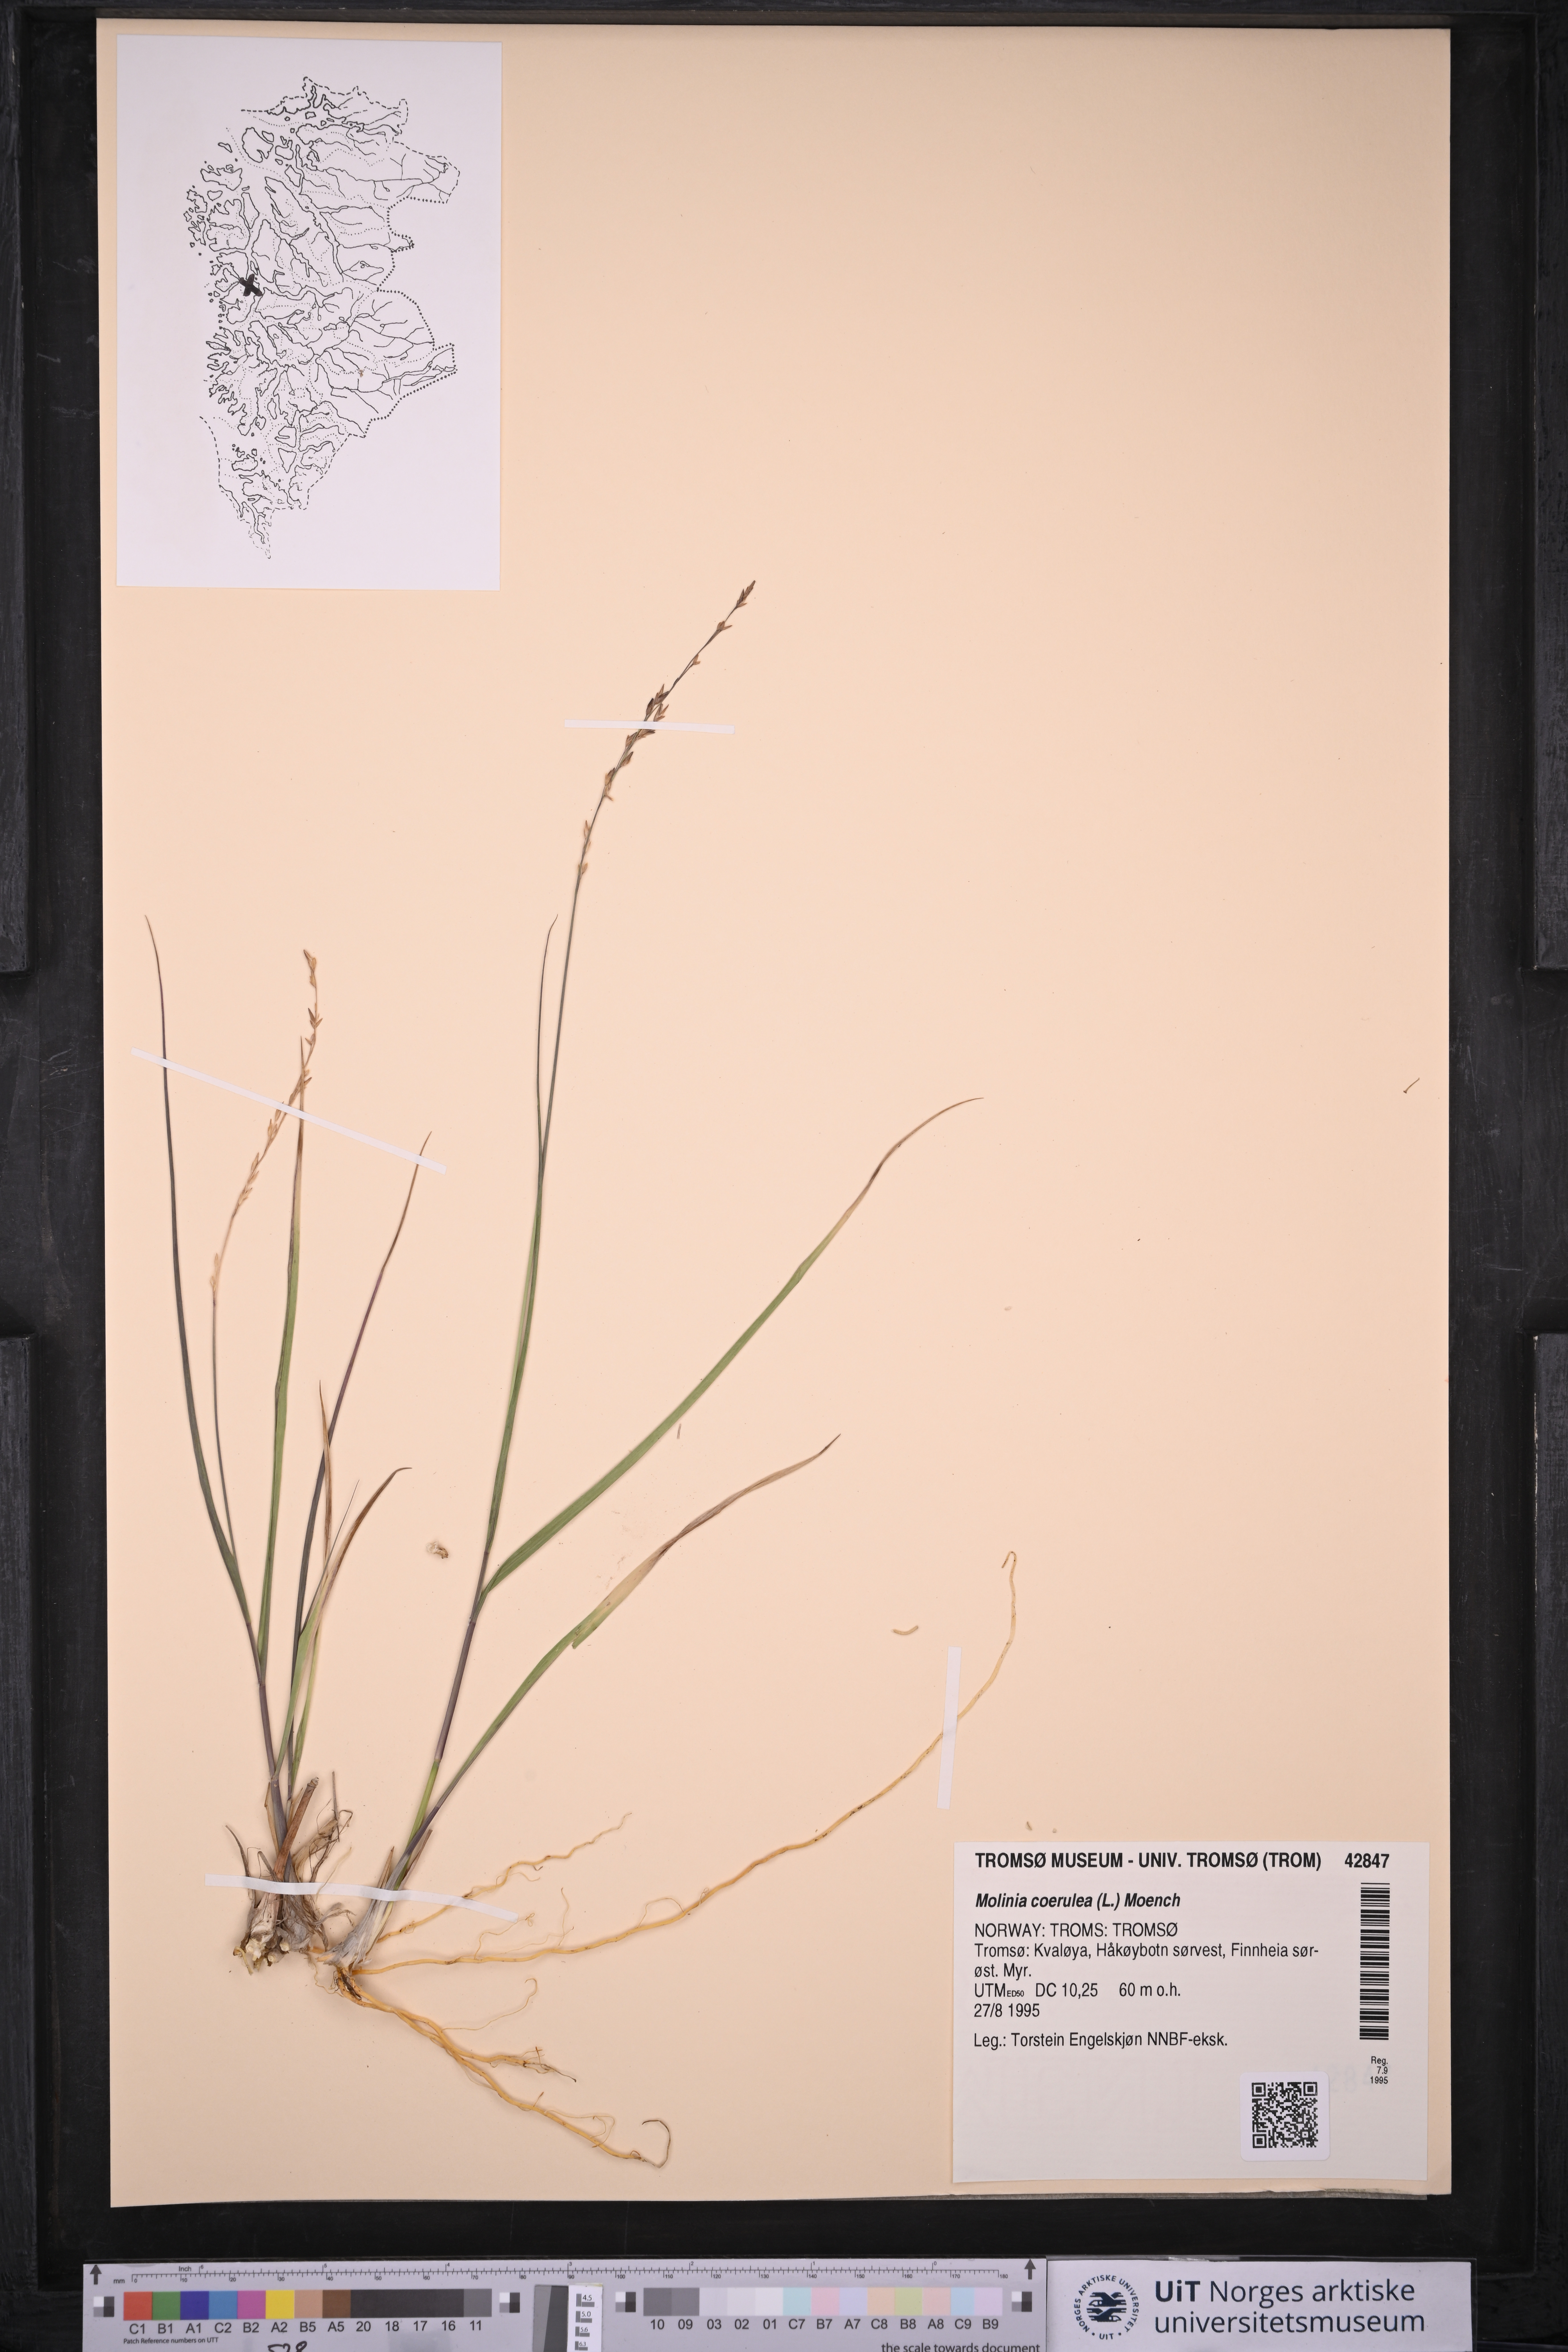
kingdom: Plantae
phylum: Tracheophyta
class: Liliopsida
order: Poales
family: Poaceae
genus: Molinia
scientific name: Molinia caerulea
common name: Purple moor-grass
